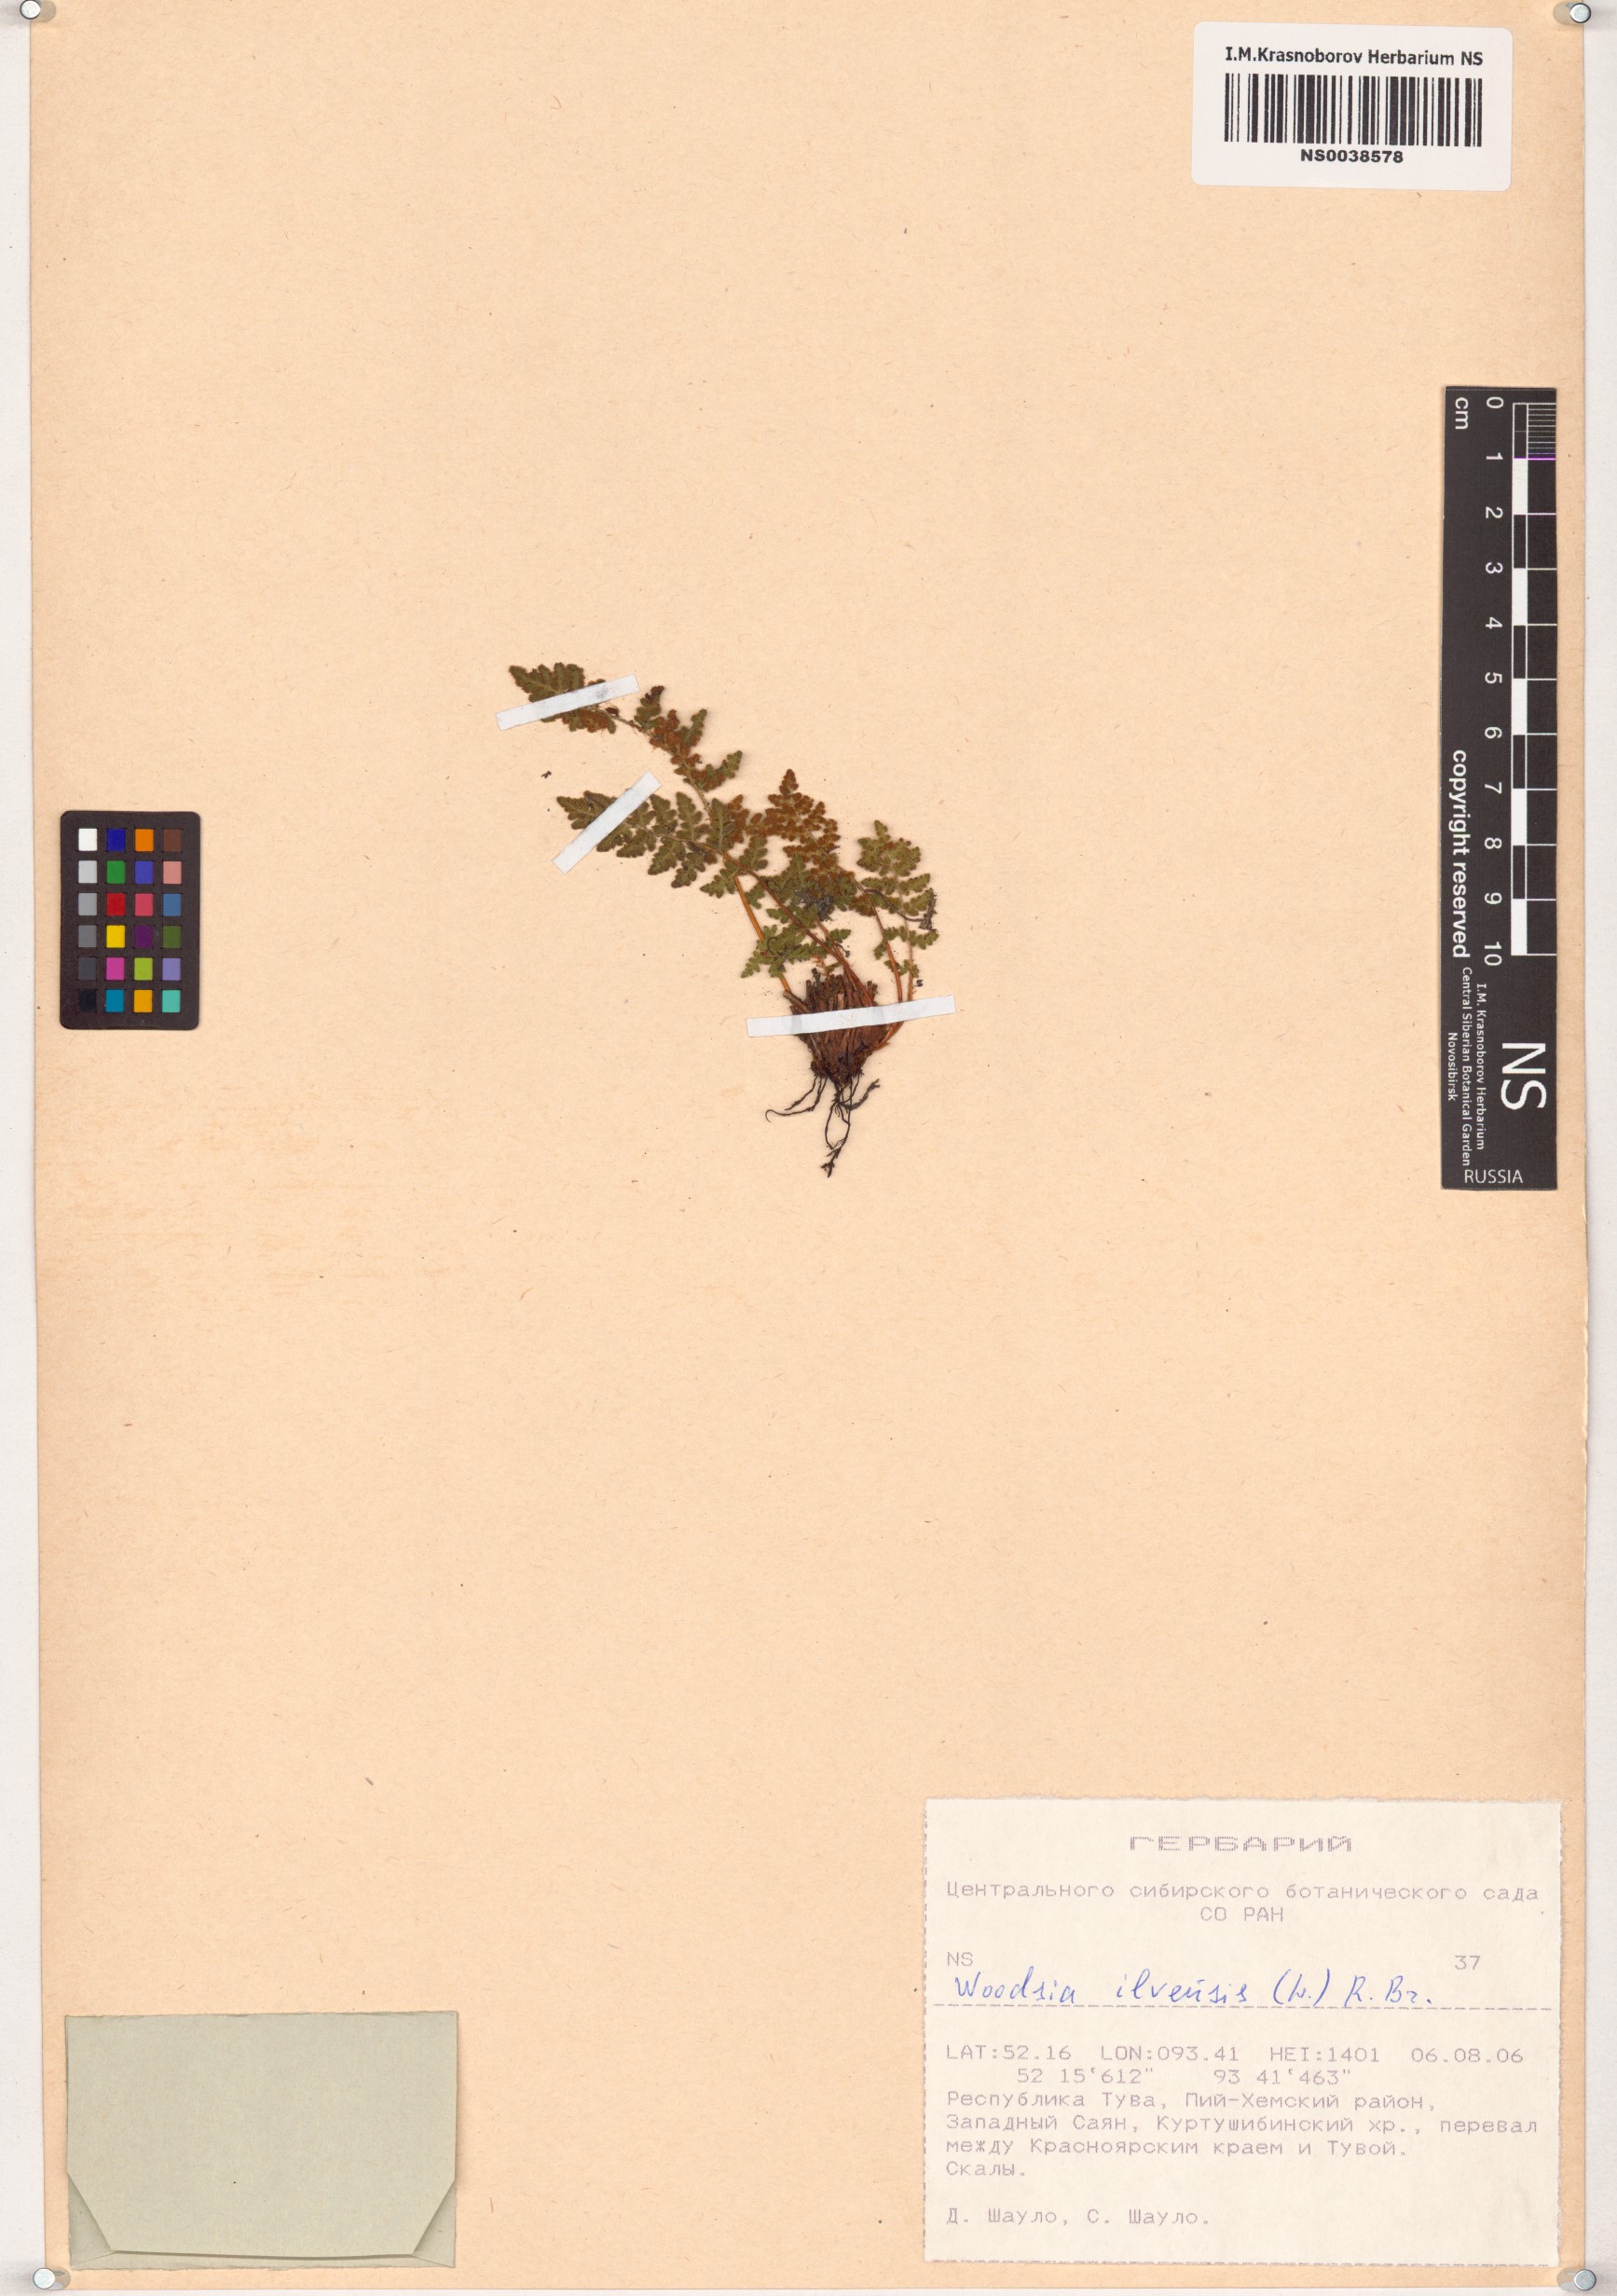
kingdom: Plantae
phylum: Tracheophyta
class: Polypodiopsida
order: Polypodiales
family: Woodsiaceae
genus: Woodsia
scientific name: Woodsia ilvensis
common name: Fragrant woodsia
